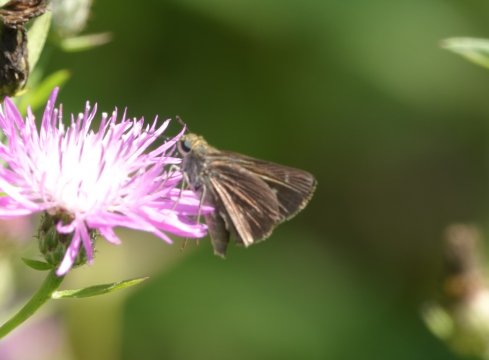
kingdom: Animalia
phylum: Arthropoda
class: Insecta
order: Lepidoptera
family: Hesperiidae
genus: Vernia
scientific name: Vernia verna
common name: Little Glassywing
